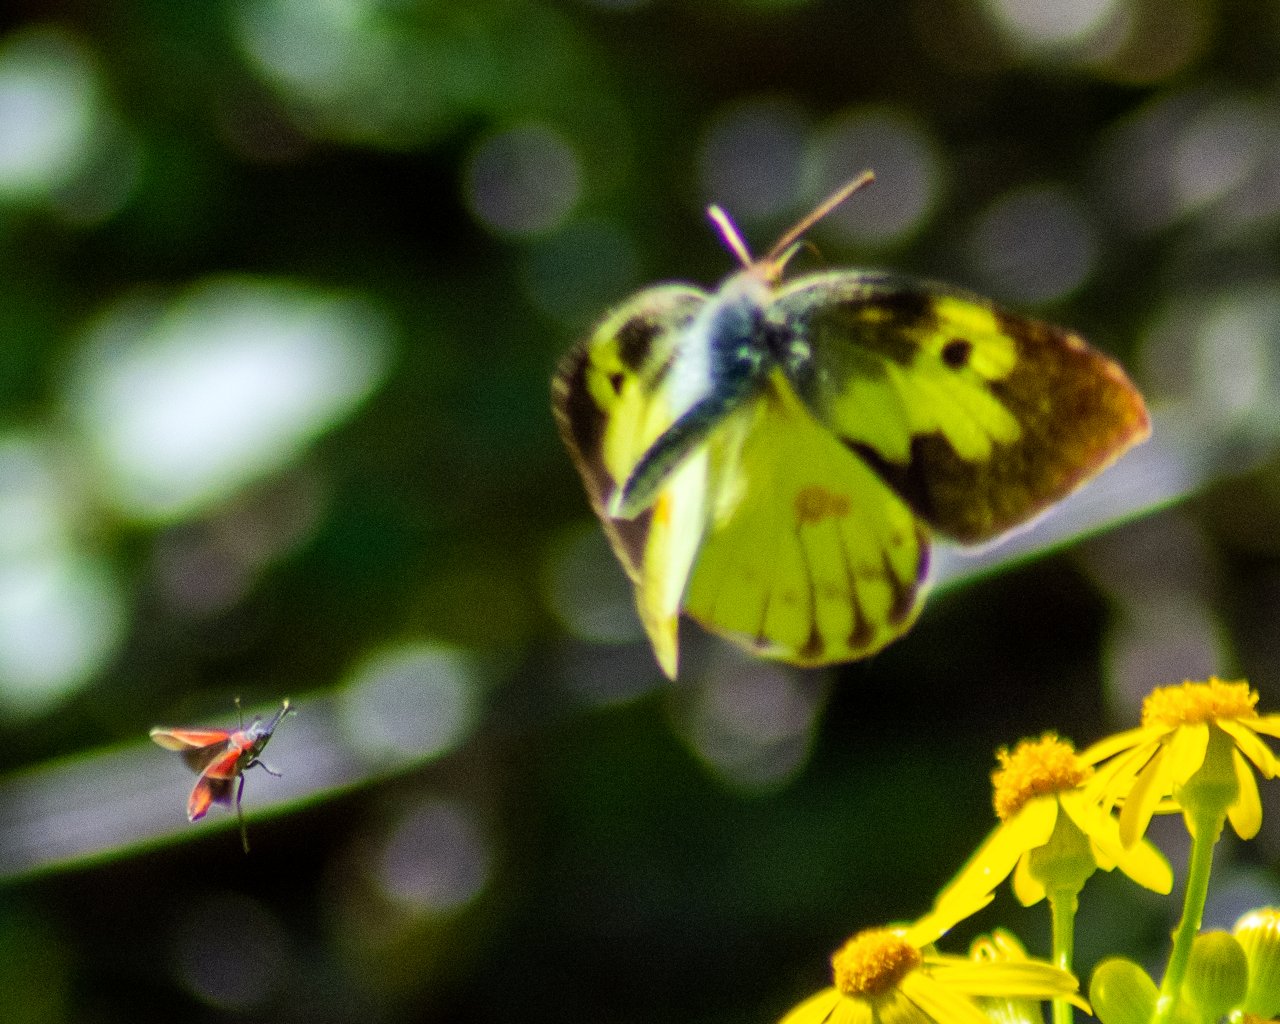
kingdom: Animalia
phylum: Arthropoda
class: Insecta
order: Lepidoptera
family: Pieridae
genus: Zerene
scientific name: Zerene cesonia
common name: Southern Dogface
